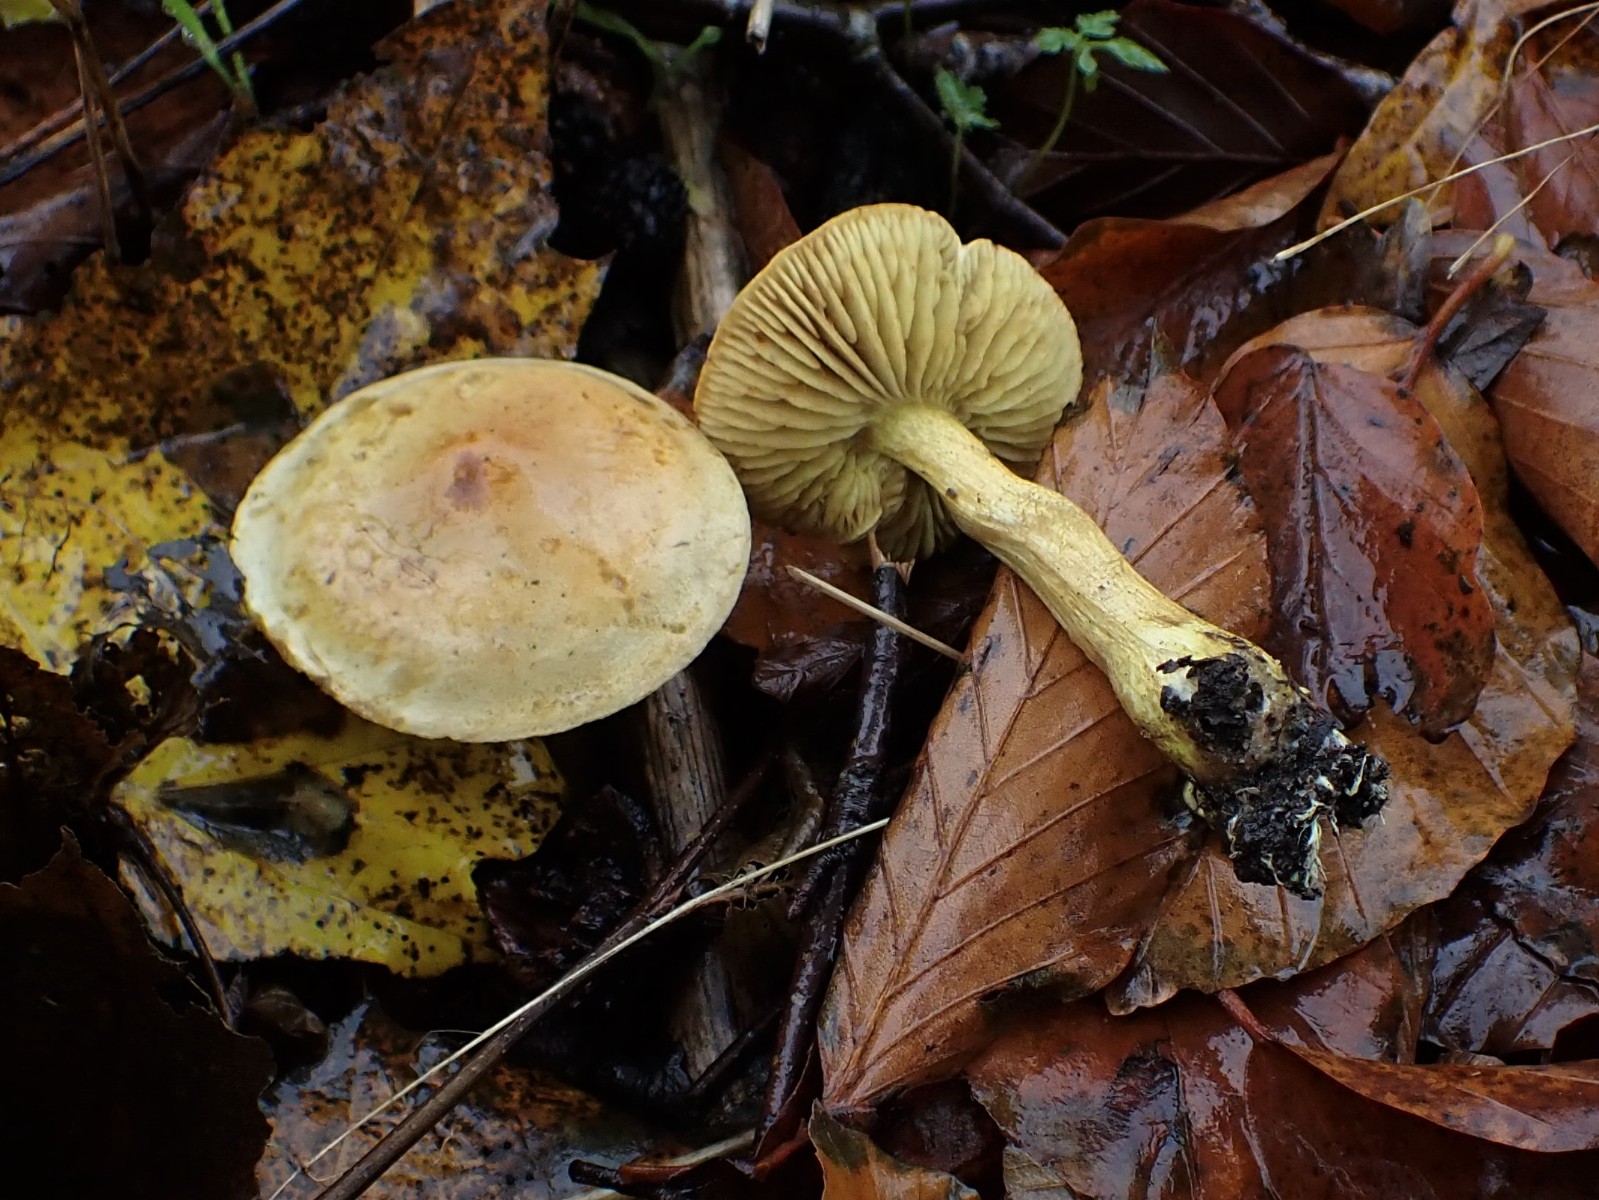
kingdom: Fungi
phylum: Basidiomycota
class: Agaricomycetes
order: Agaricales
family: Tricholomataceae
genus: Tricholoma
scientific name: Tricholoma sulphureum
